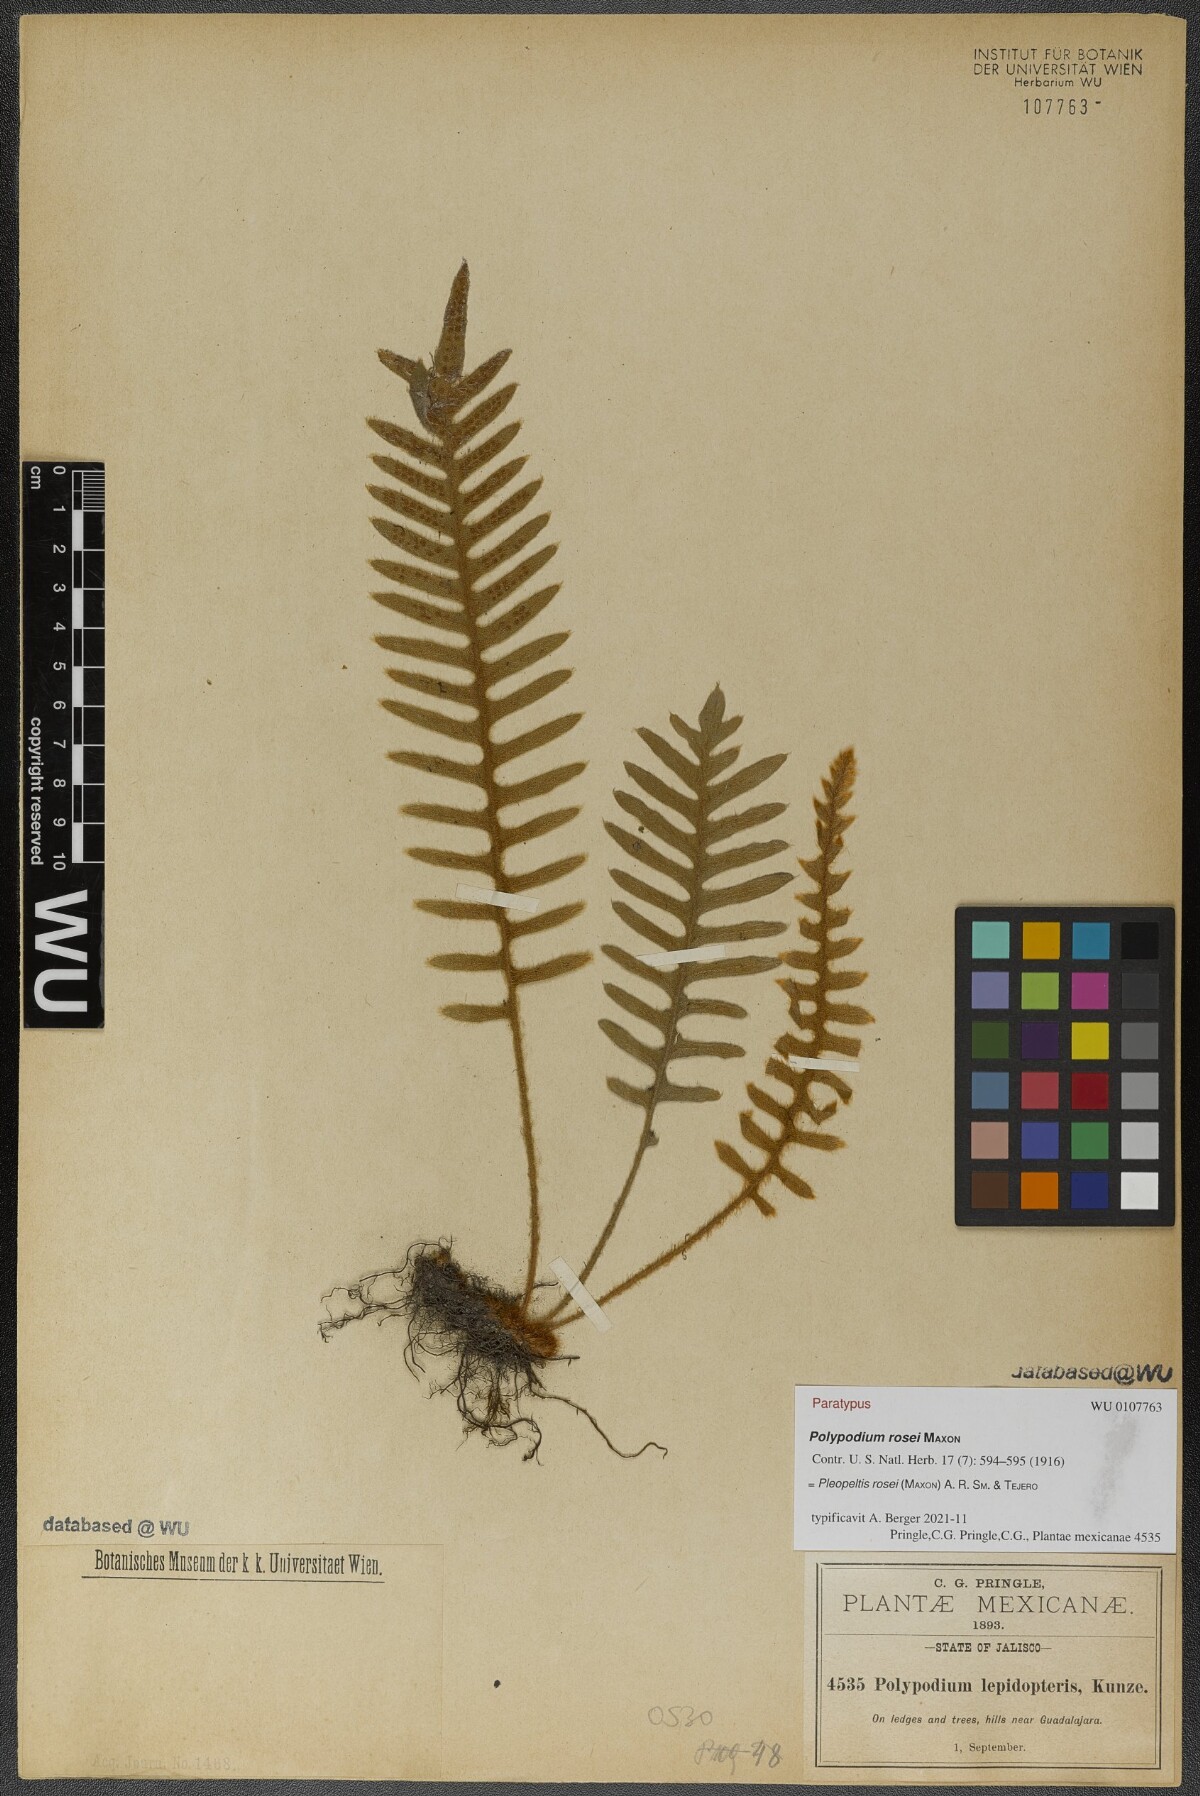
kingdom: Plantae
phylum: Tracheophyta
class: Polypodiopsida
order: Polypodiales
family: Polypodiaceae
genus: Pleopeltis
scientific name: Pleopeltis rosei
